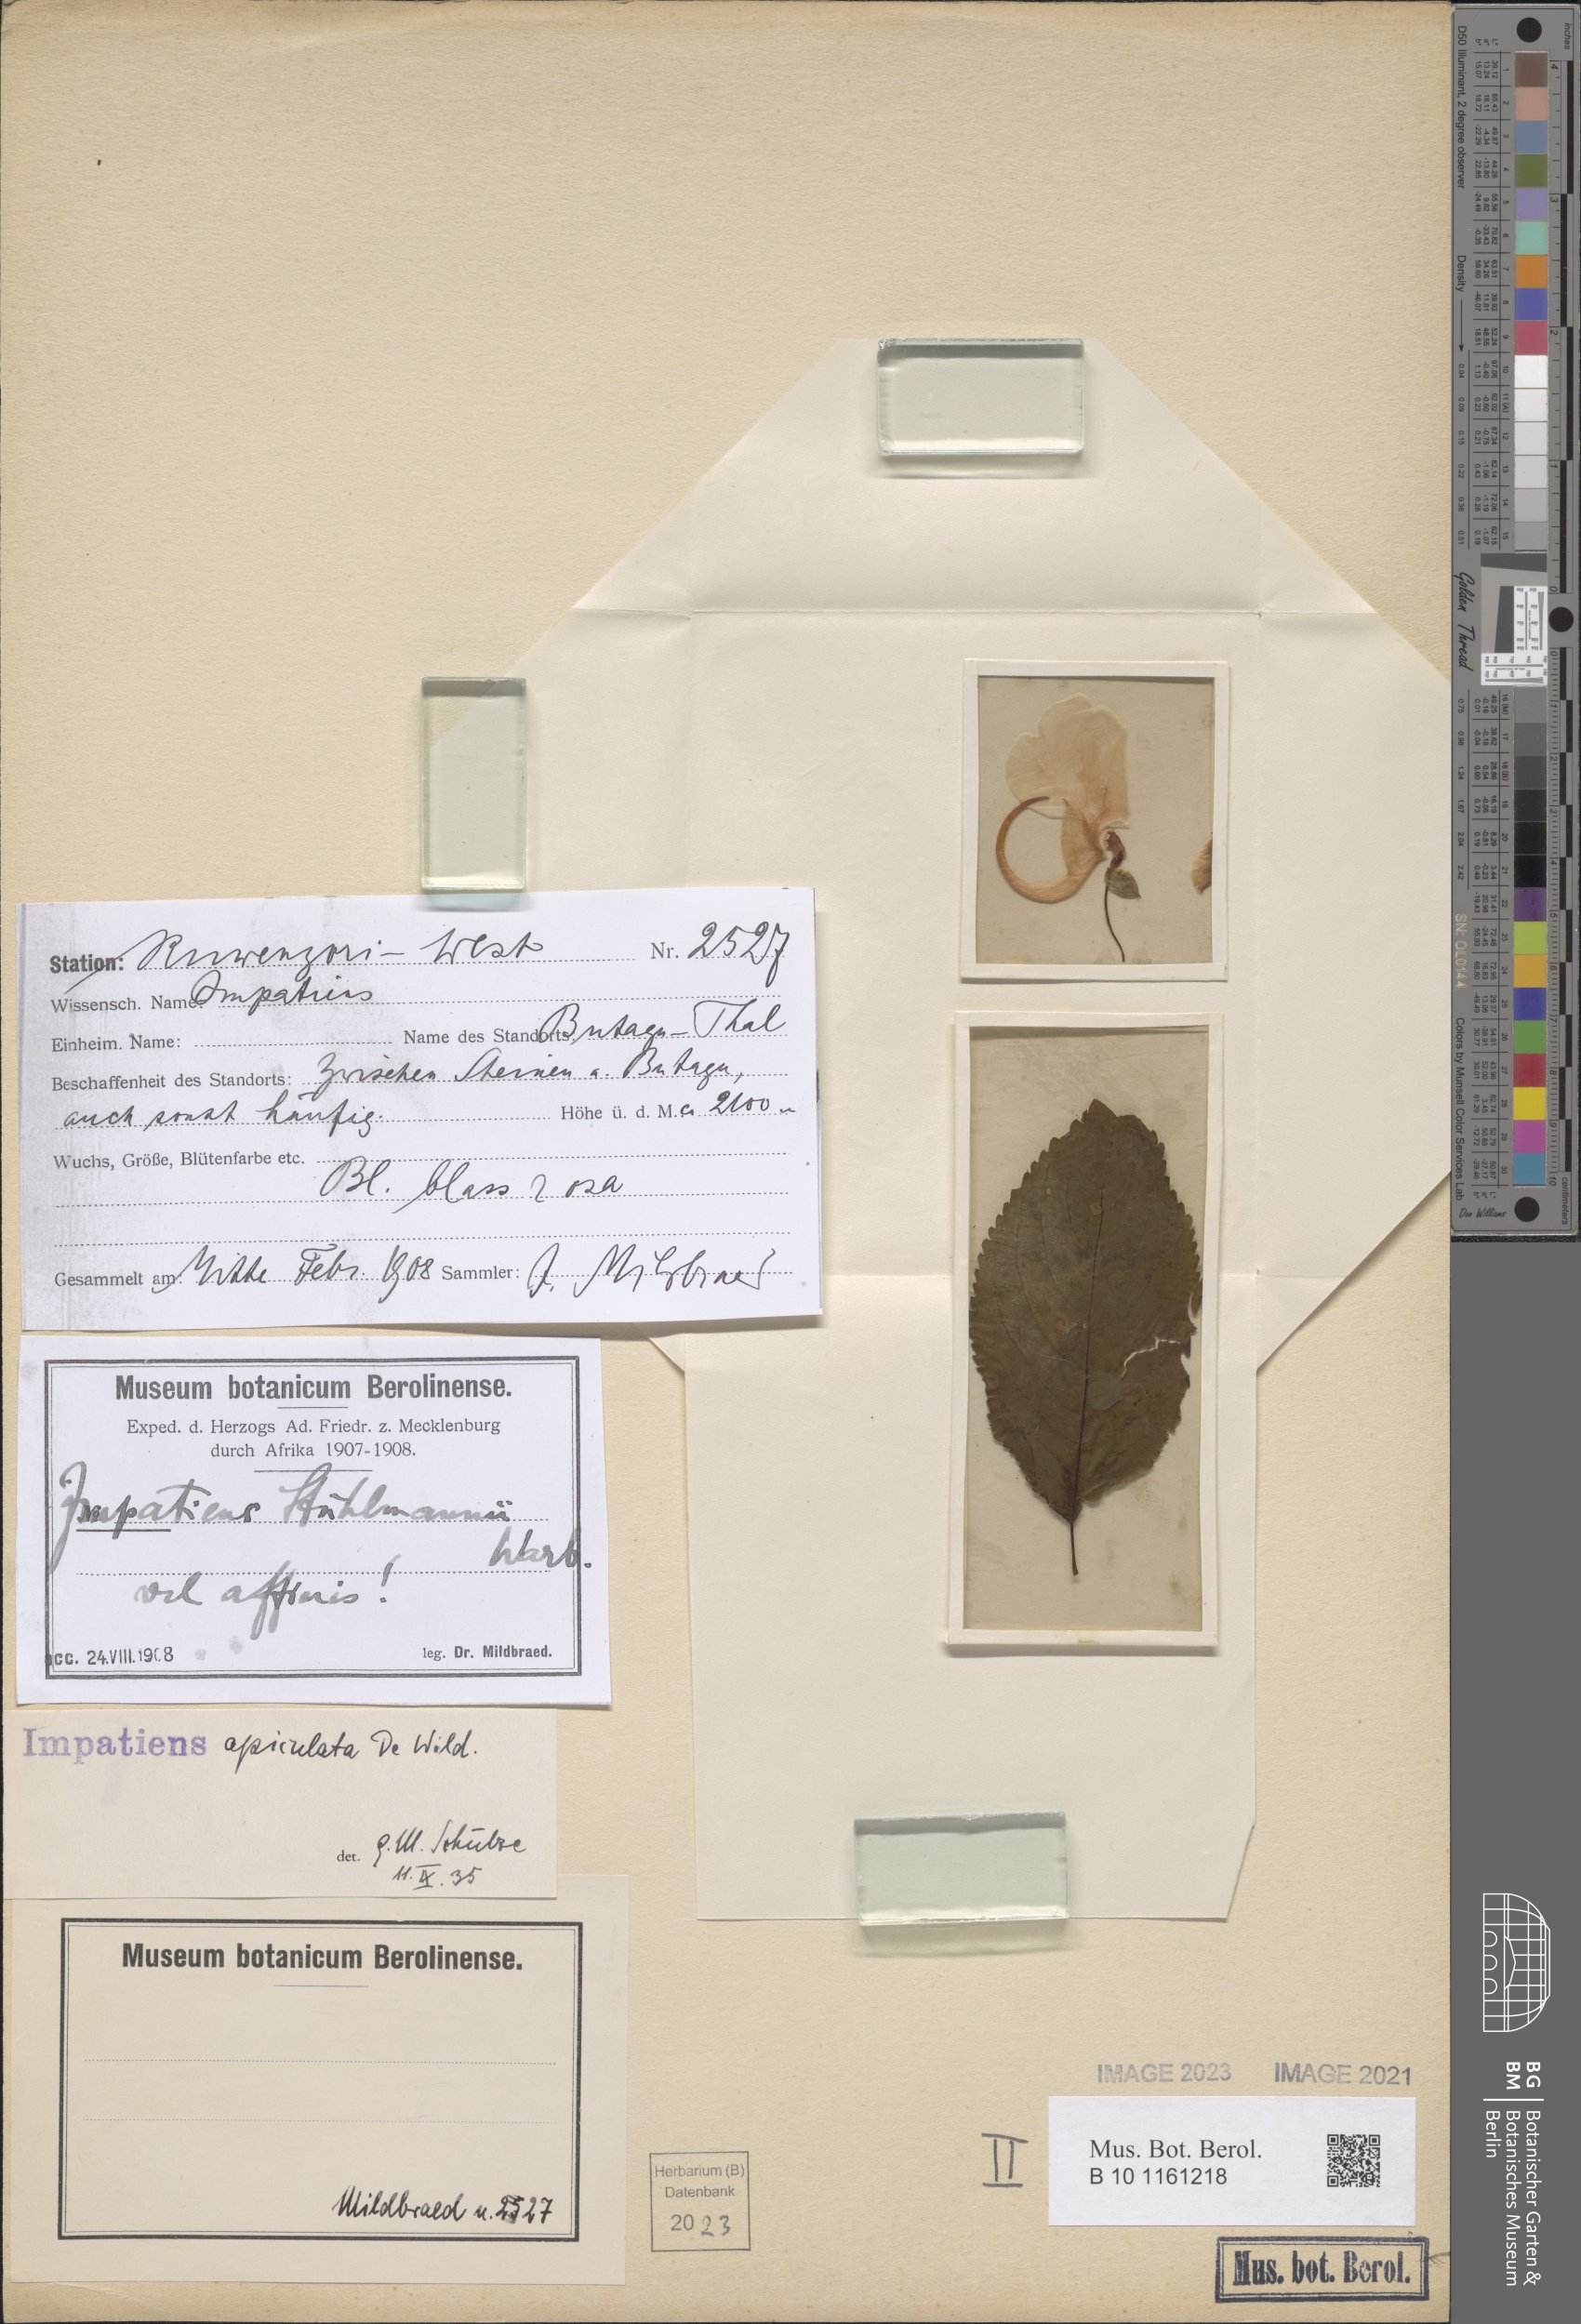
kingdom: Plantae
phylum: Tracheophyta
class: Magnoliopsida
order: Ericales
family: Balsaminaceae
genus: Impatiens
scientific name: Impatiens apiculata
